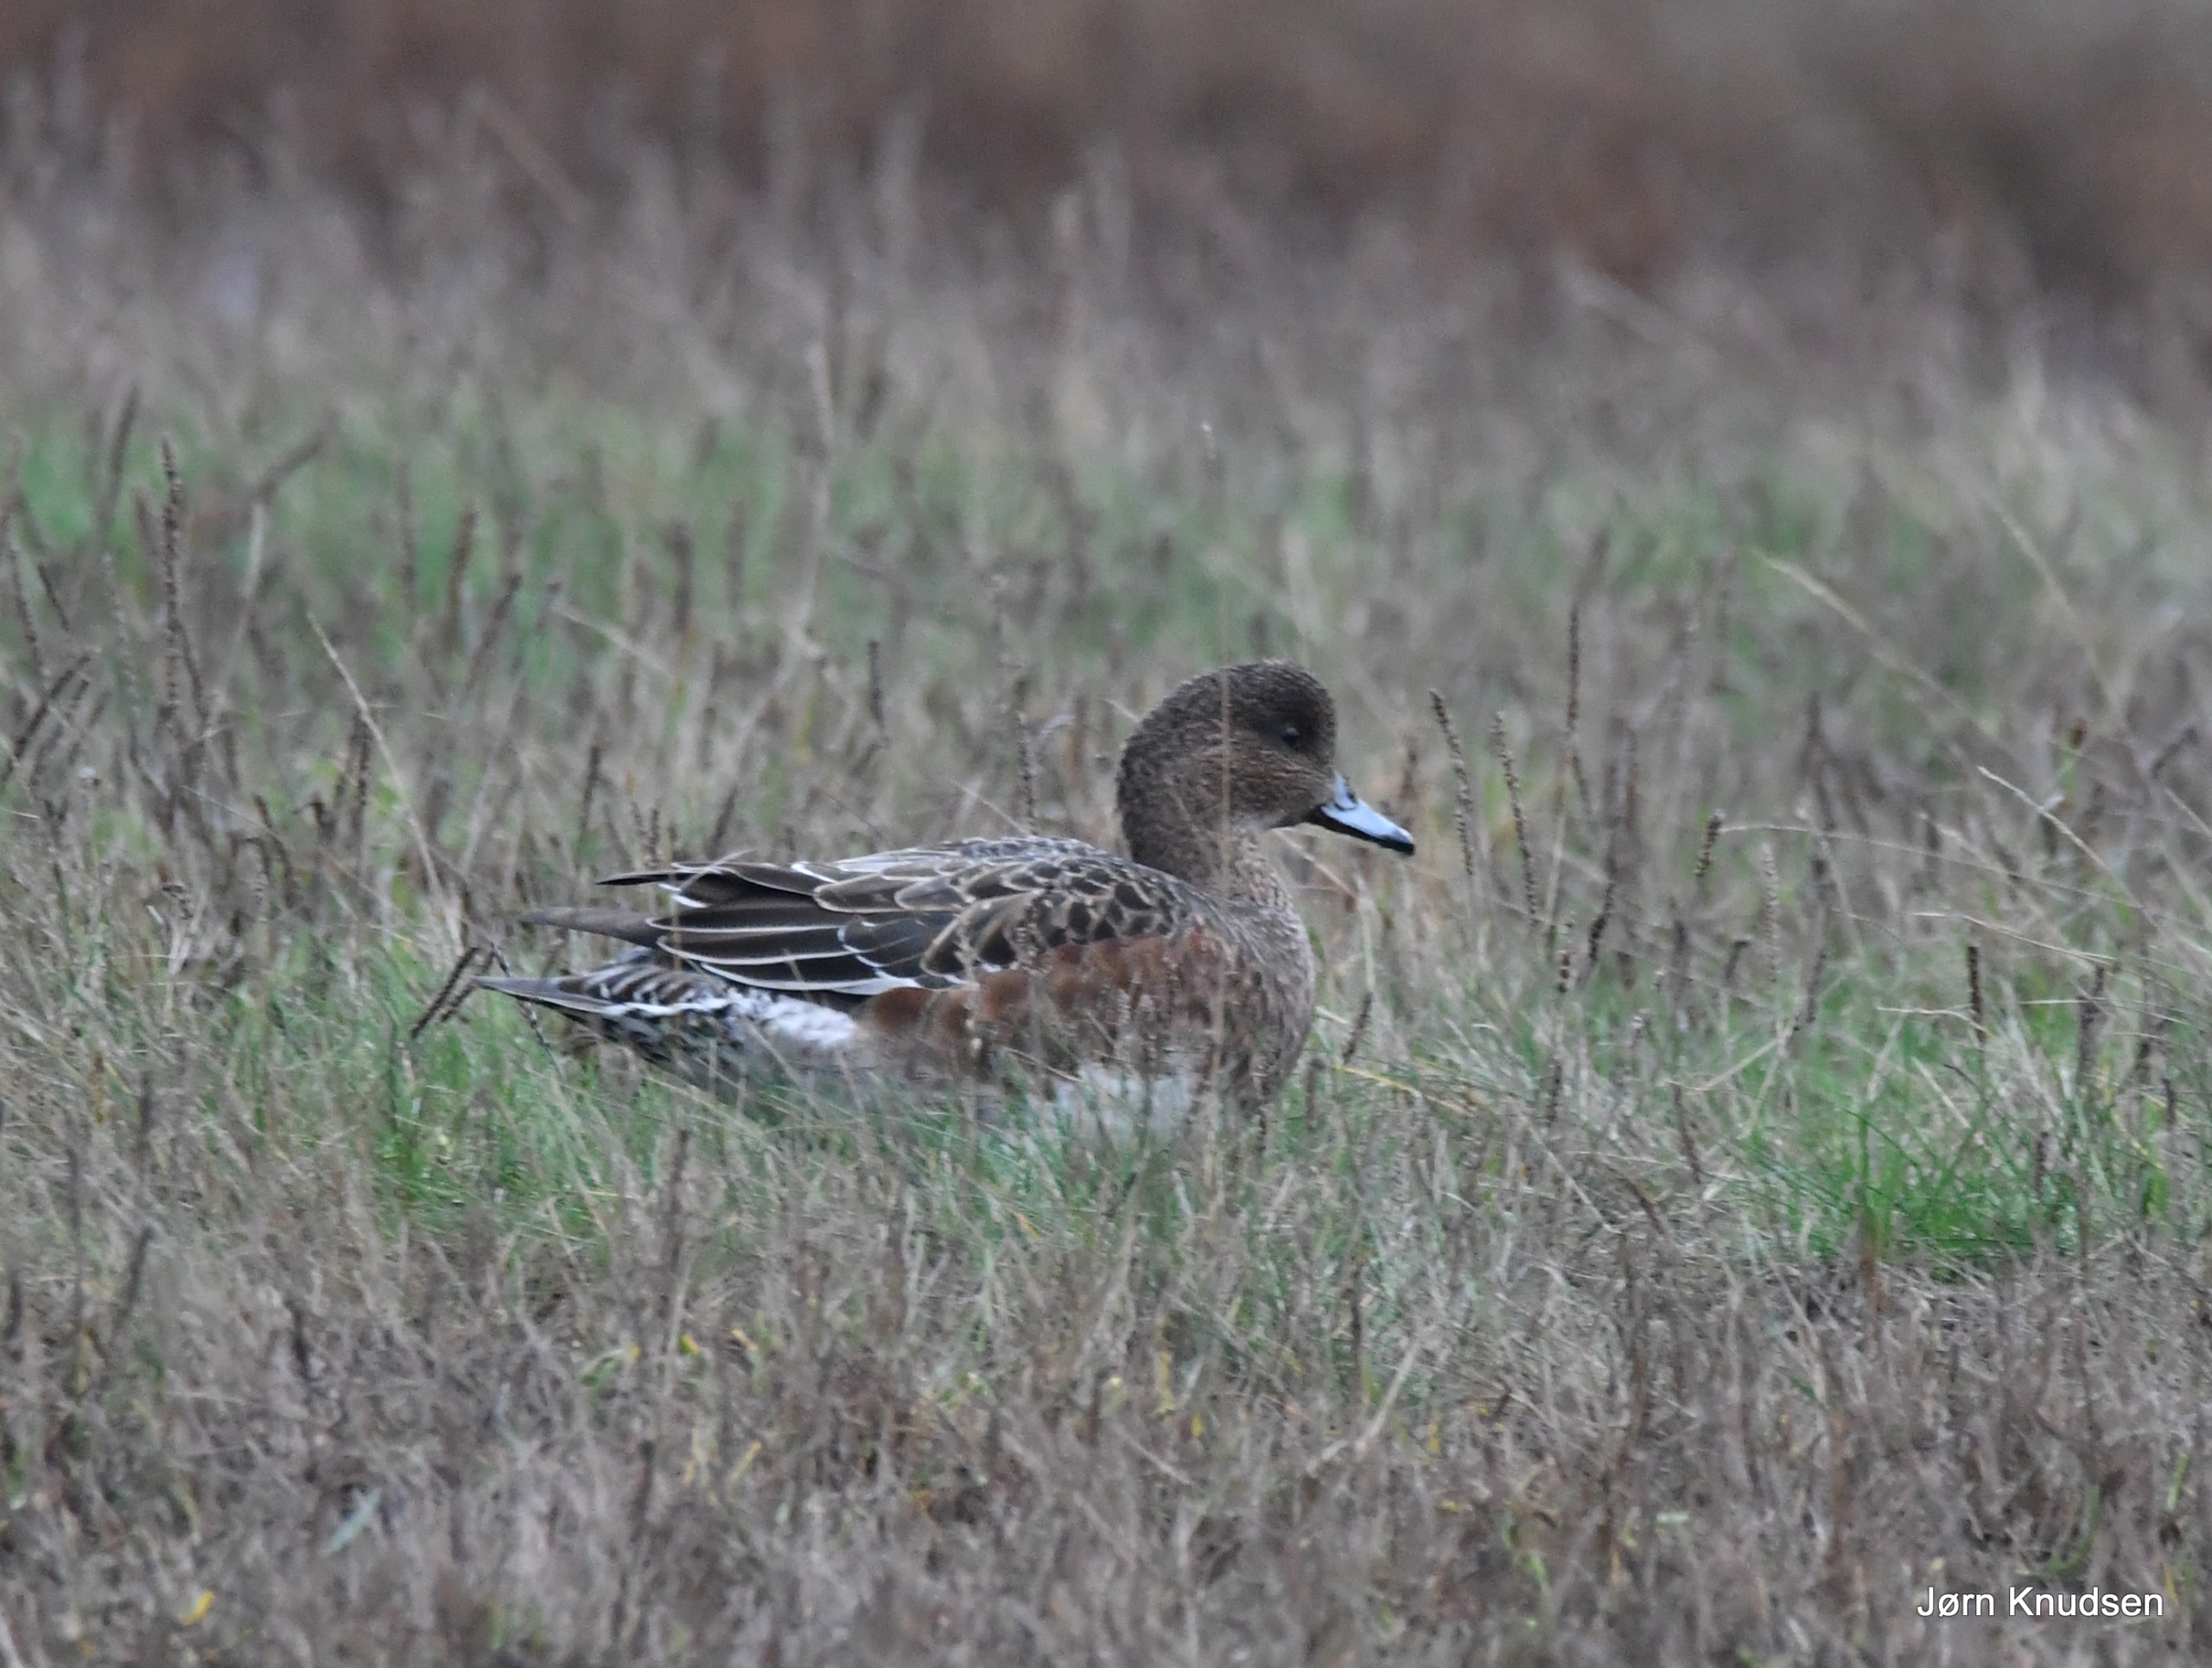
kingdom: Animalia
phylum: Chordata
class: Aves
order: Anseriformes
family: Anatidae
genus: Mareca
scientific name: Mareca penelope
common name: Pibeand
